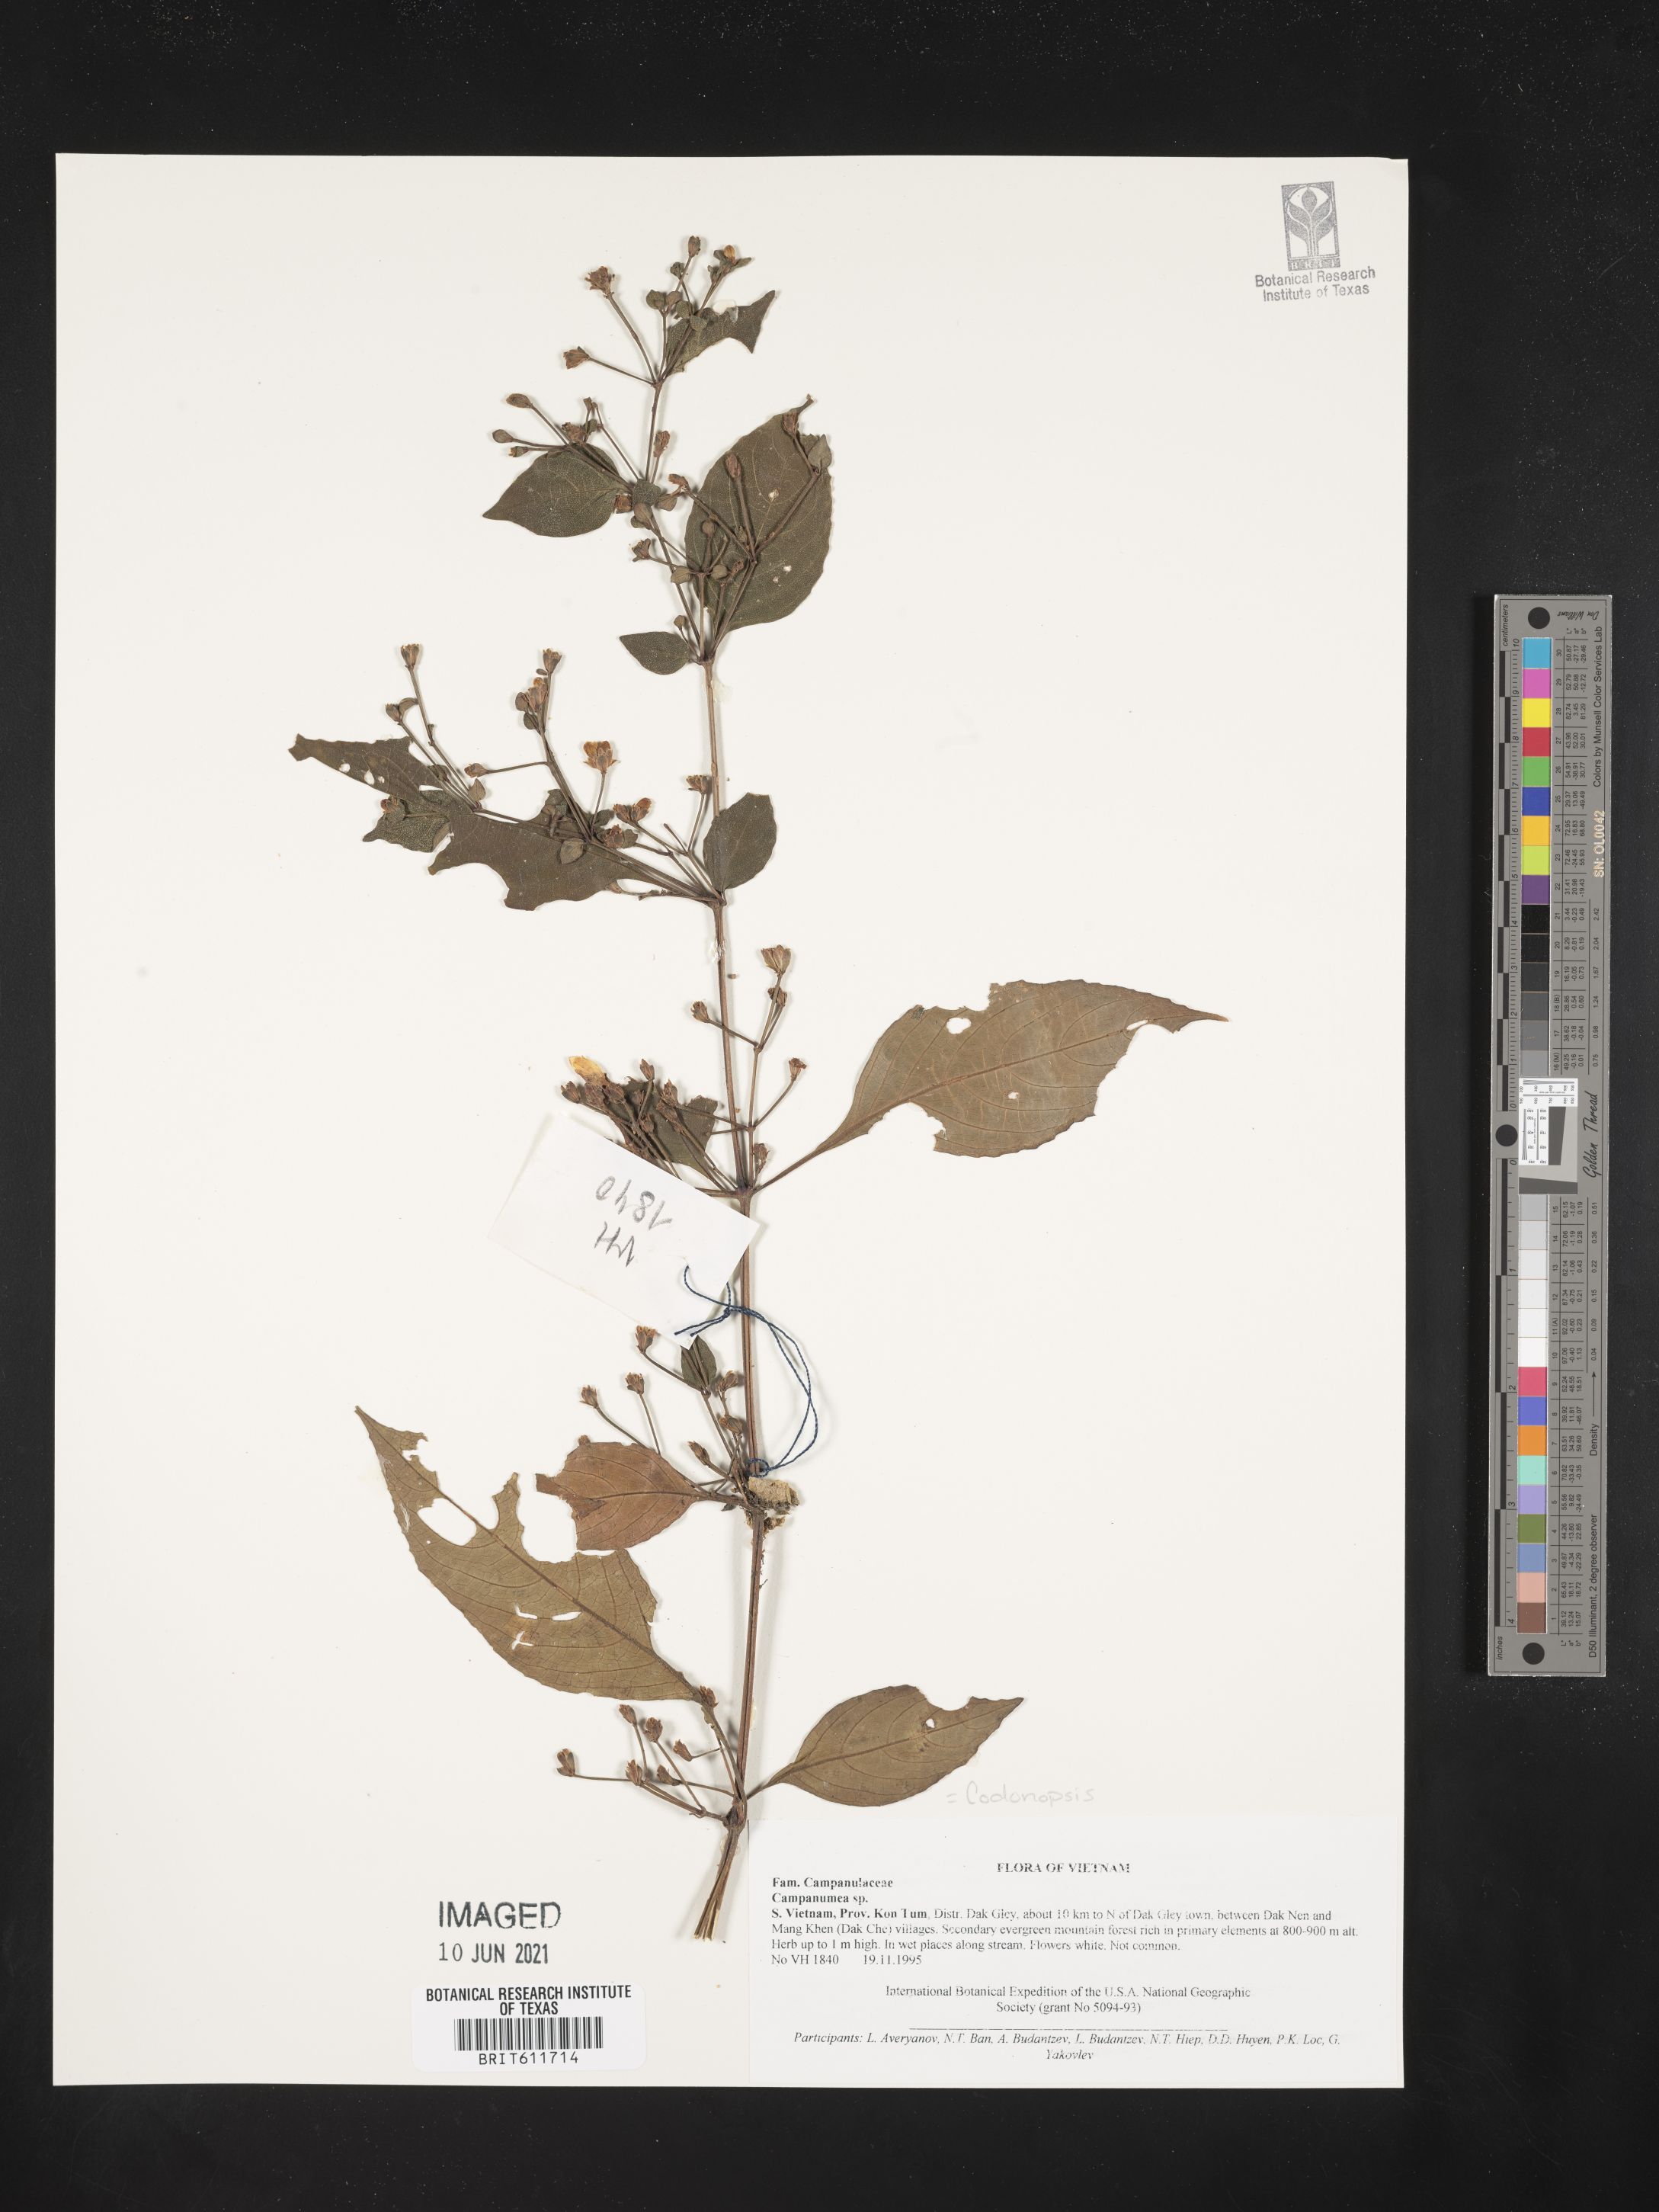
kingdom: Plantae
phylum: Tracheophyta
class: Magnoliopsida
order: Asterales
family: Campanulaceae
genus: Codonopsis
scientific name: Codonopsis
